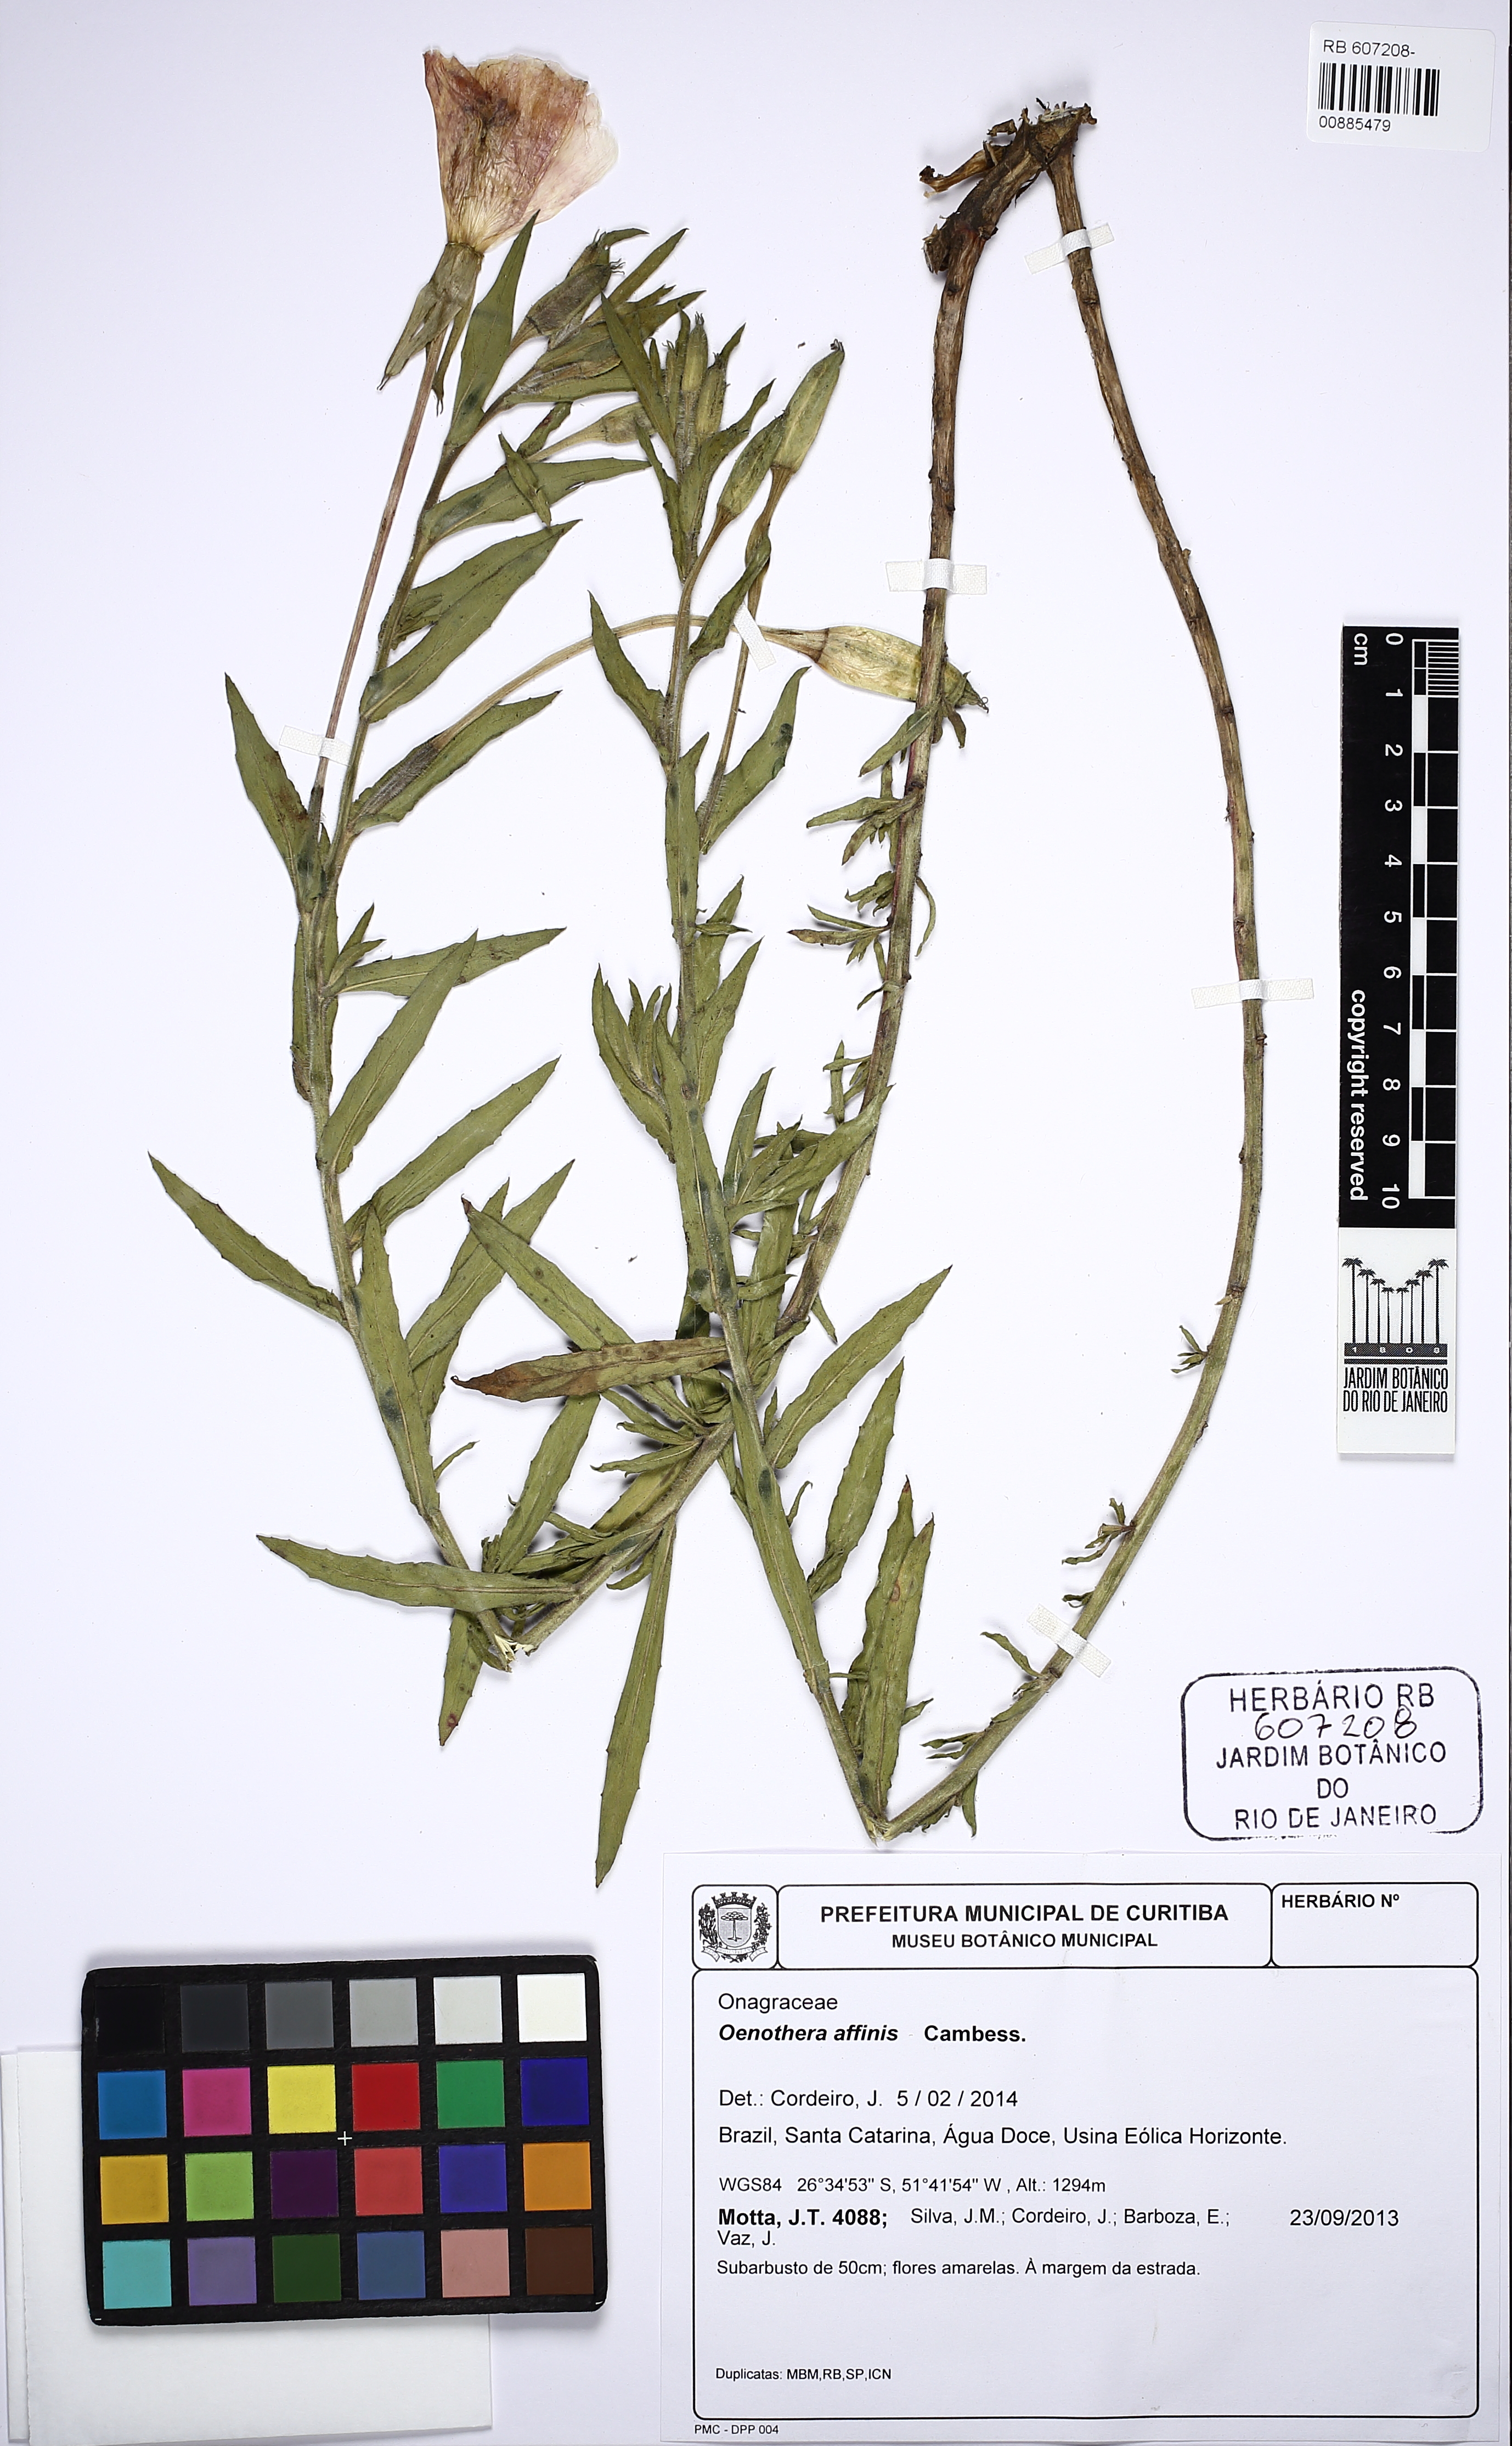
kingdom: Plantae
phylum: Tracheophyta
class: Magnoliopsida
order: Myrtales
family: Onagraceae
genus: Oenothera
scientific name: Oenothera affinis
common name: Longflower evening primrose
